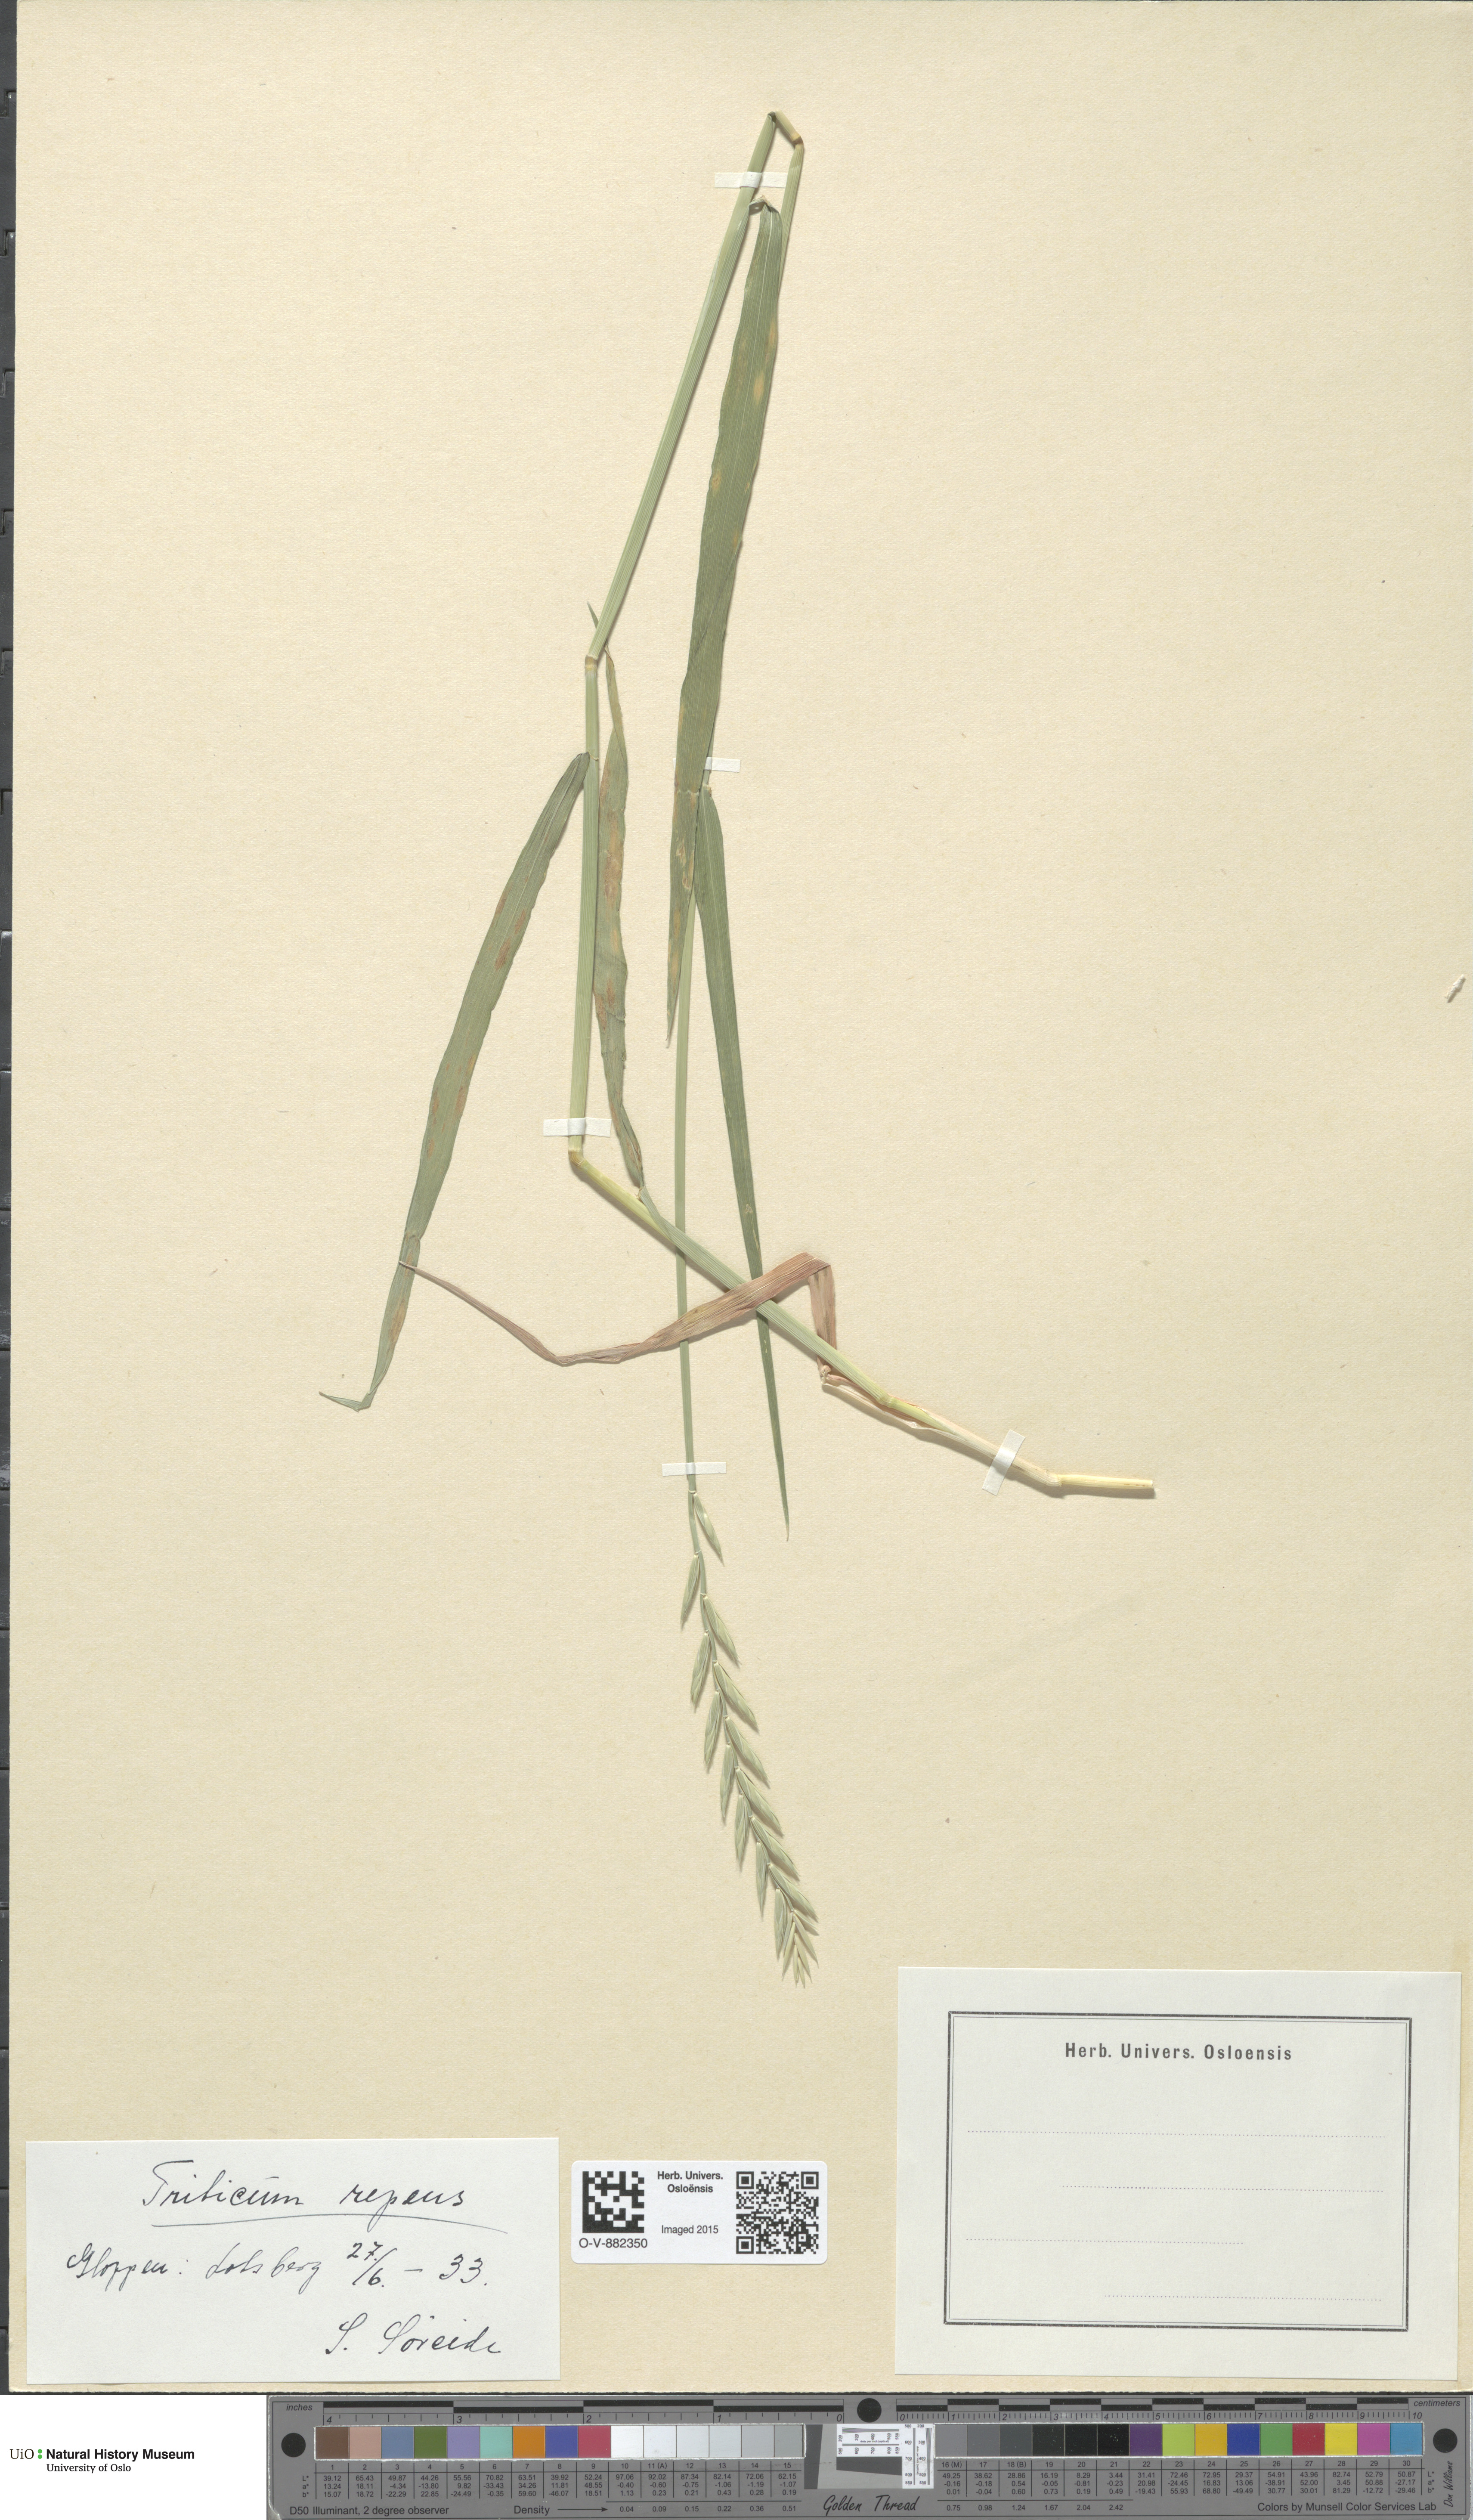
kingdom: Plantae
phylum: Tracheophyta
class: Liliopsida
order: Poales
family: Poaceae
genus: Elymus
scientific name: Elymus repens
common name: Quackgrass
